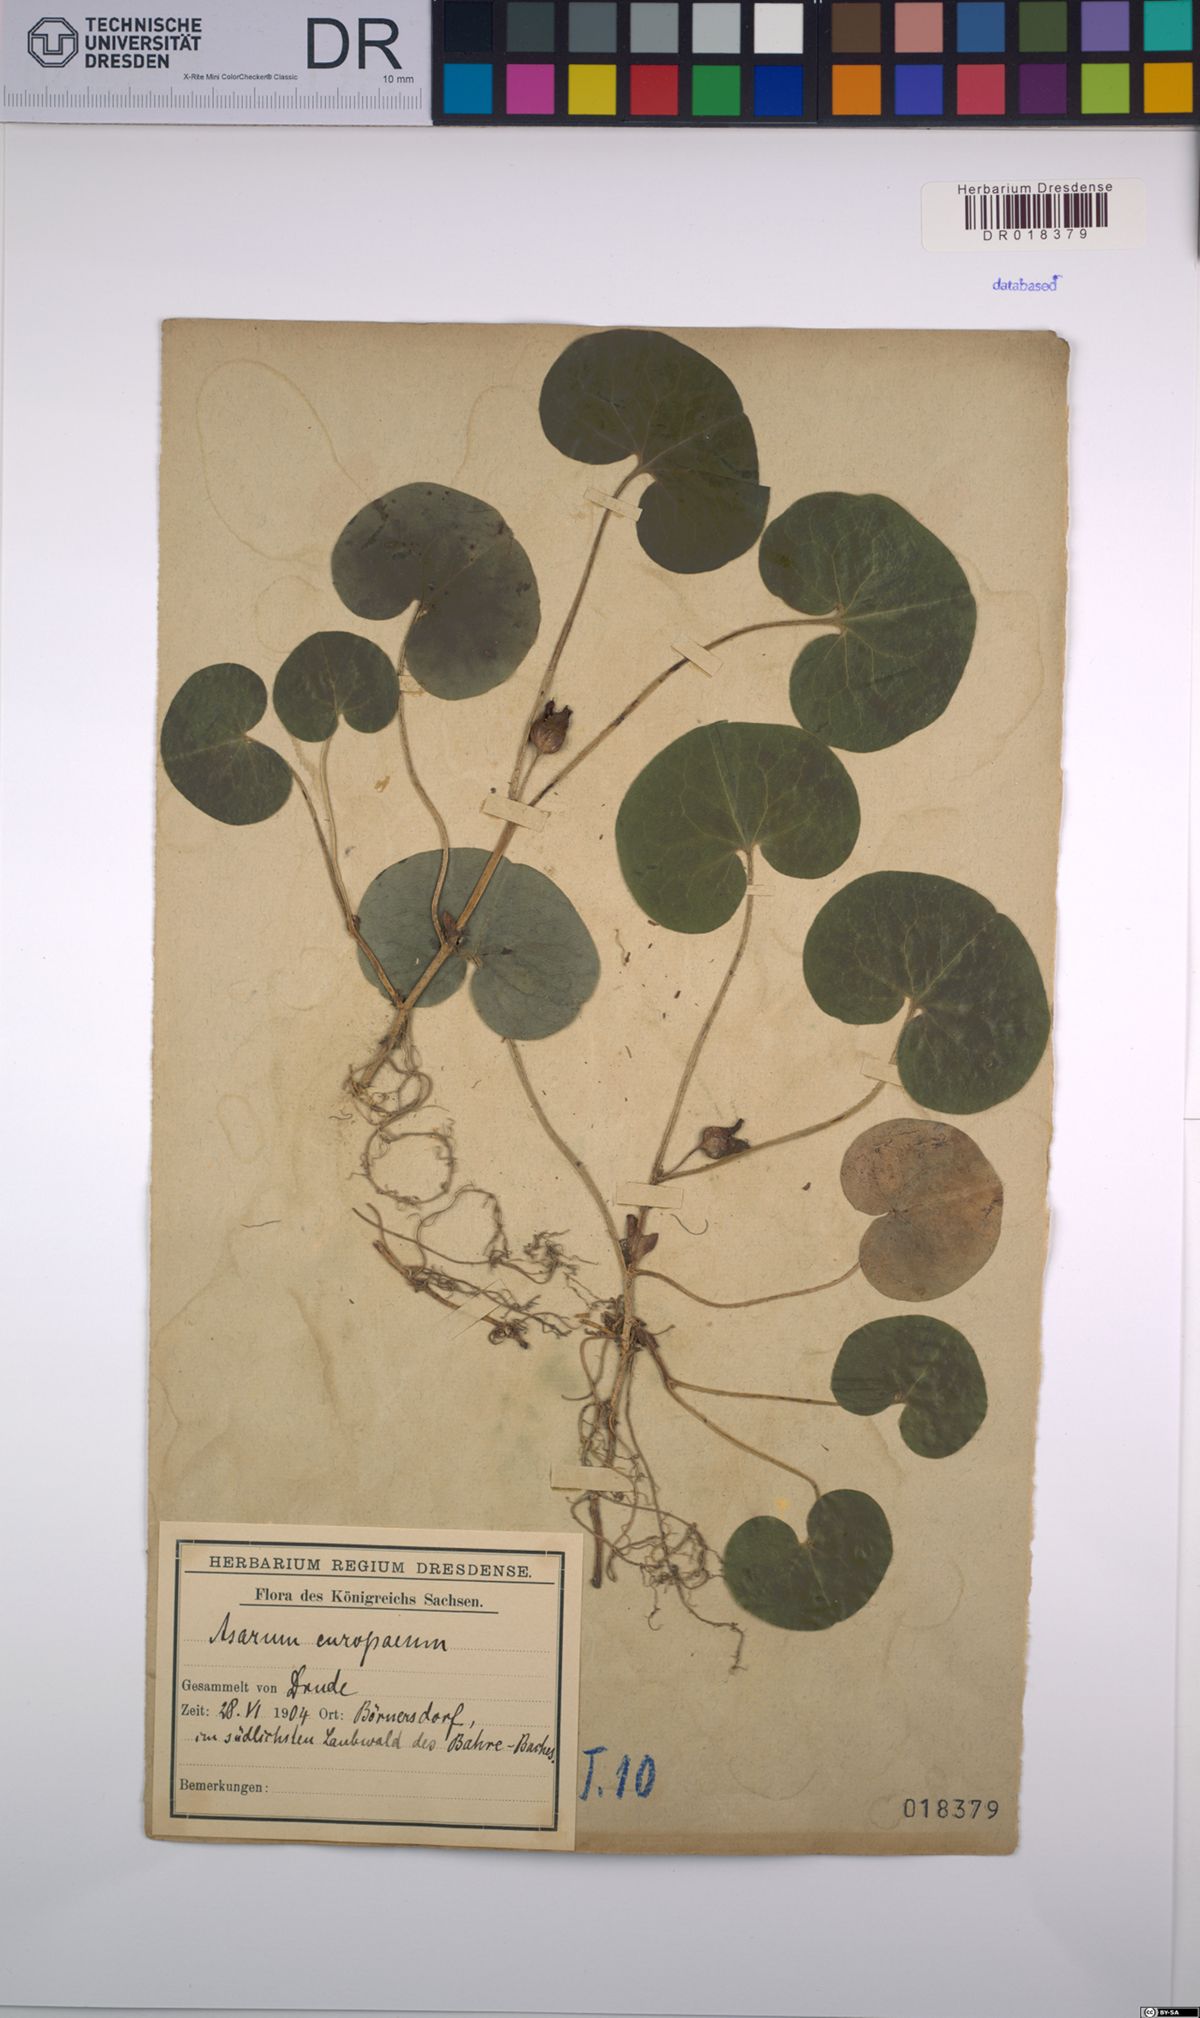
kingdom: Plantae
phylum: Tracheophyta
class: Magnoliopsida
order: Piperales
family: Aristolochiaceae
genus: Asarum
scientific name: Asarum europaeum
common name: Asarabacca
